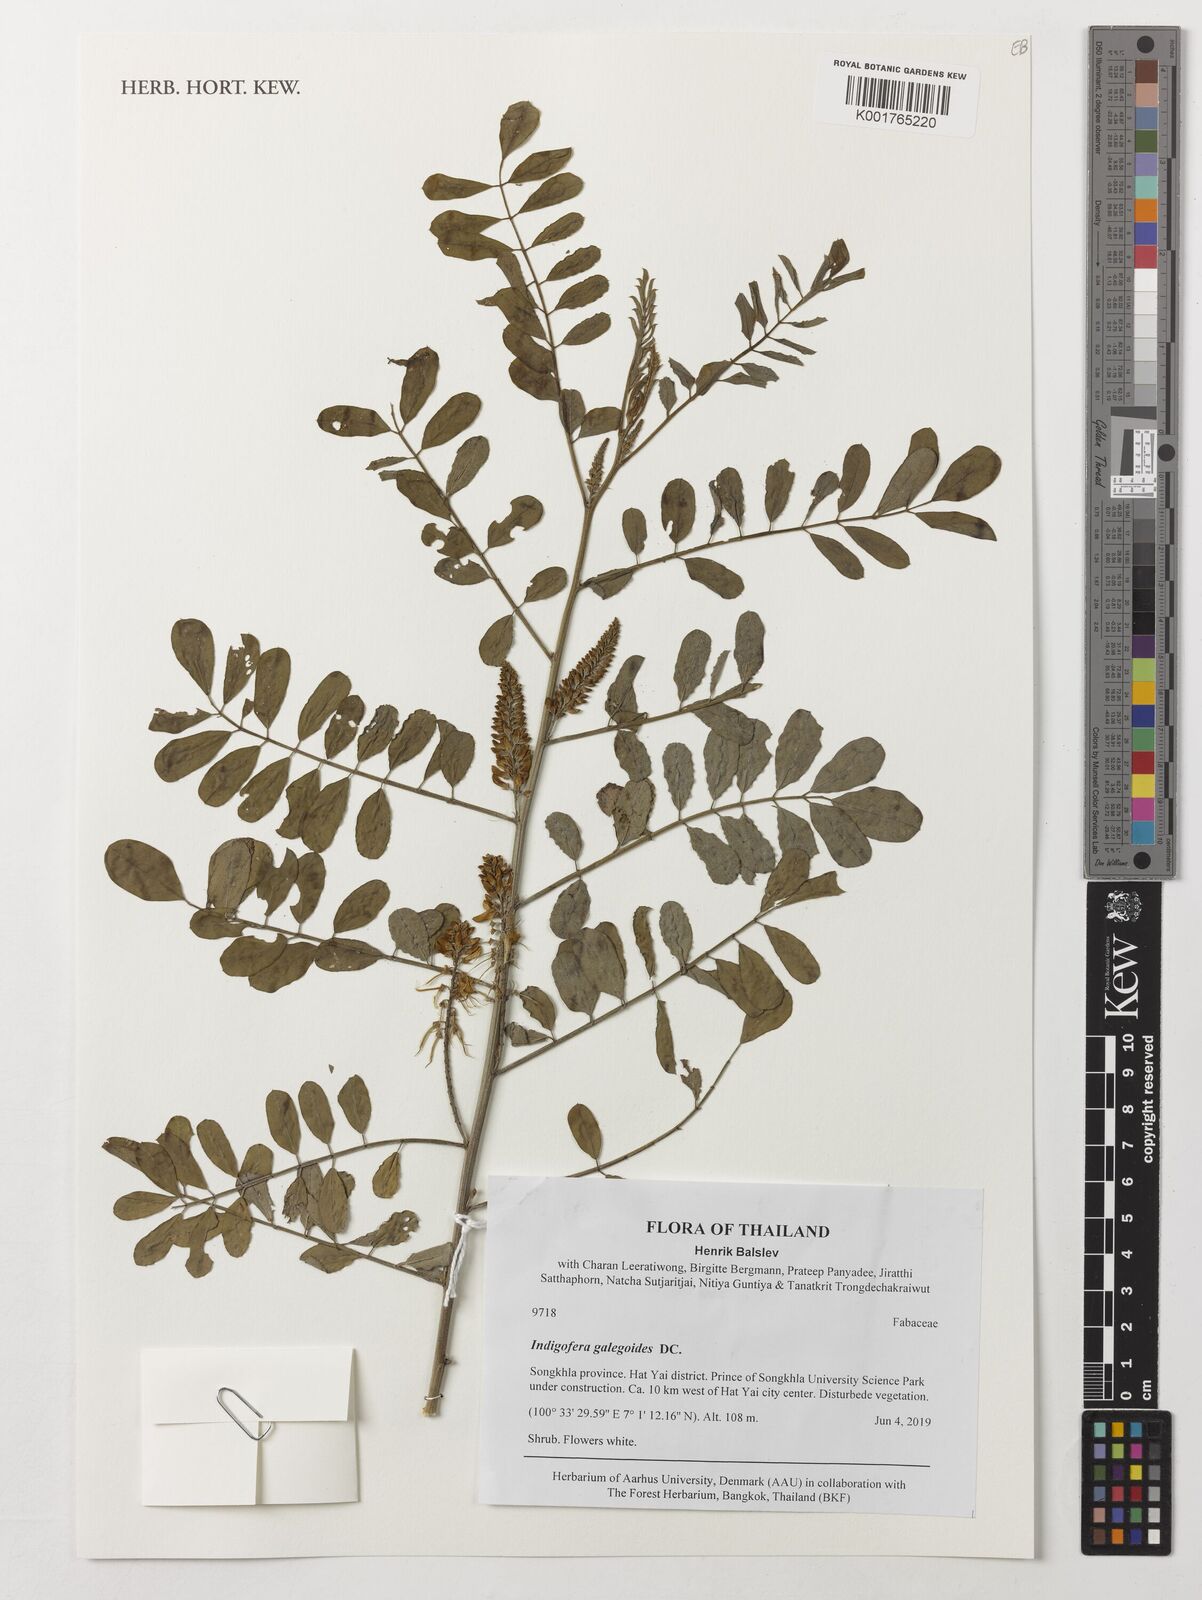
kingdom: Plantae
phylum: Tracheophyta
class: Magnoliopsida
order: Fabales
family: Fabaceae
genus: Indigofera
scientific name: Indigofera galegoides
